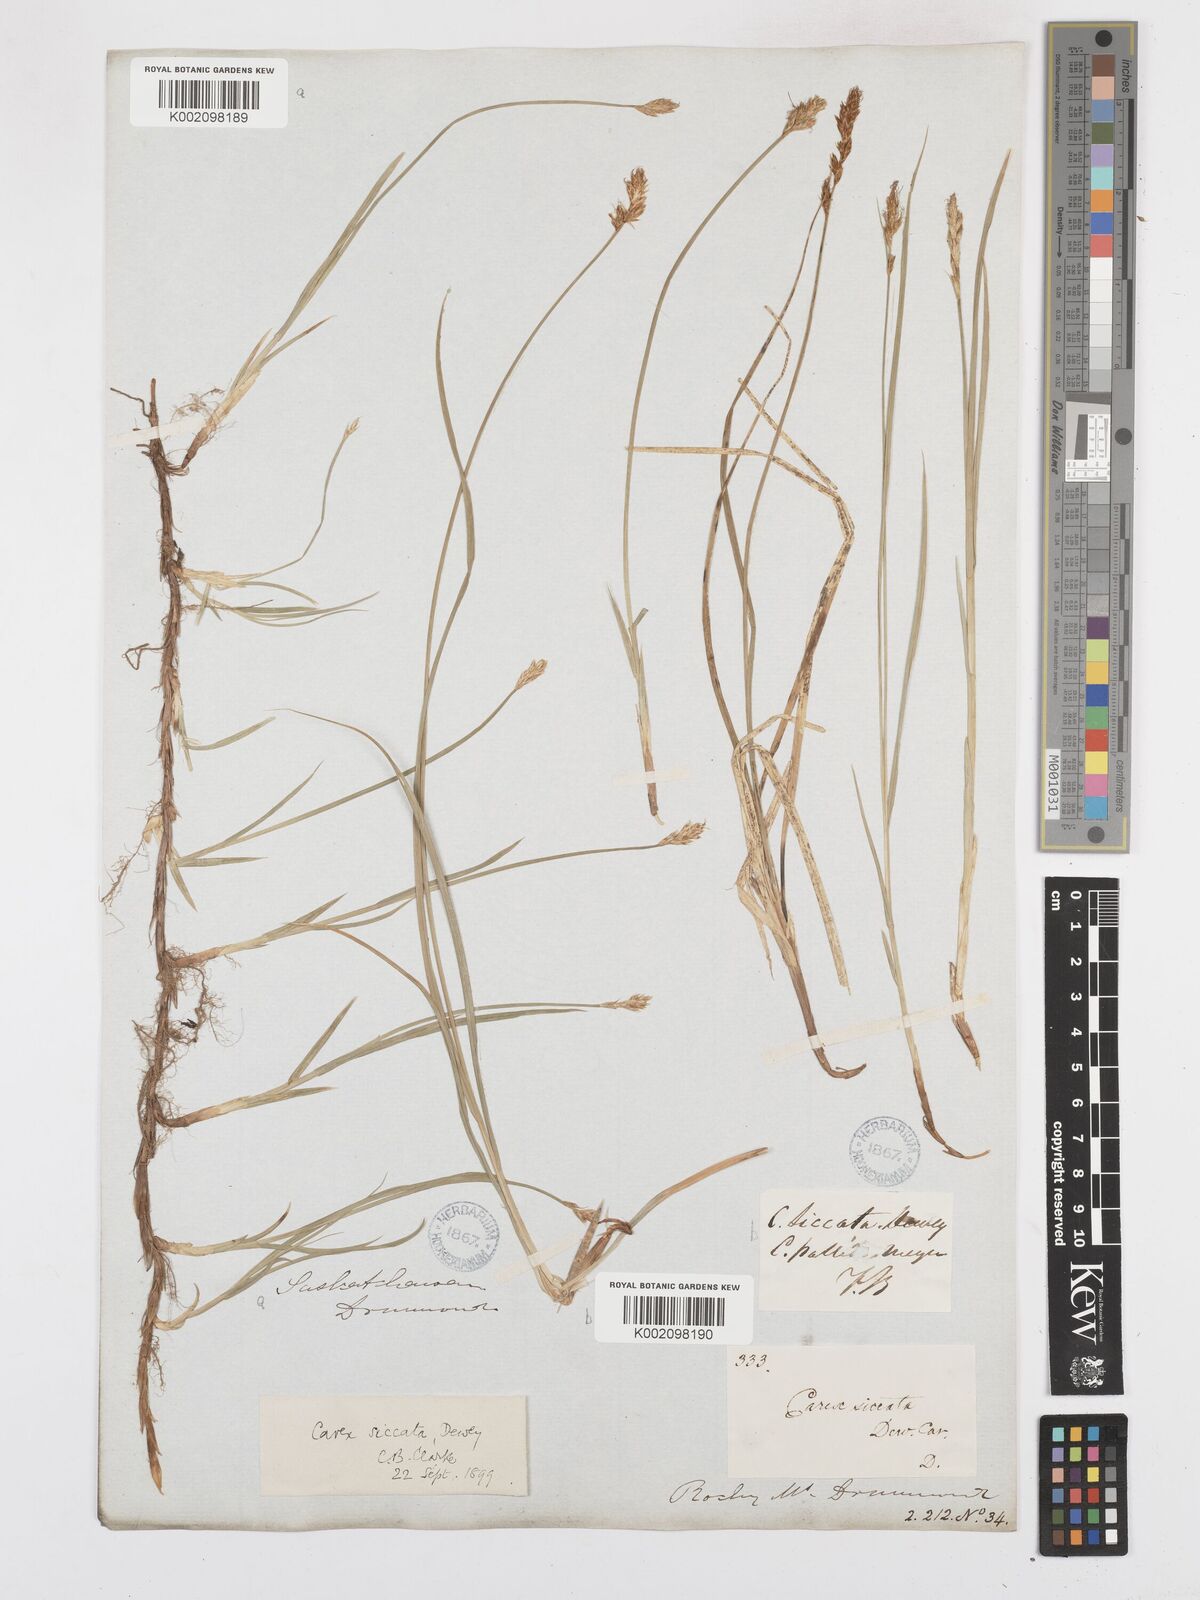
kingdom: Plantae
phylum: Tracheophyta
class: Liliopsida
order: Poales
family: Cyperaceae
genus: Carex
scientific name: Carex foenea
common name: Bronze sedge
